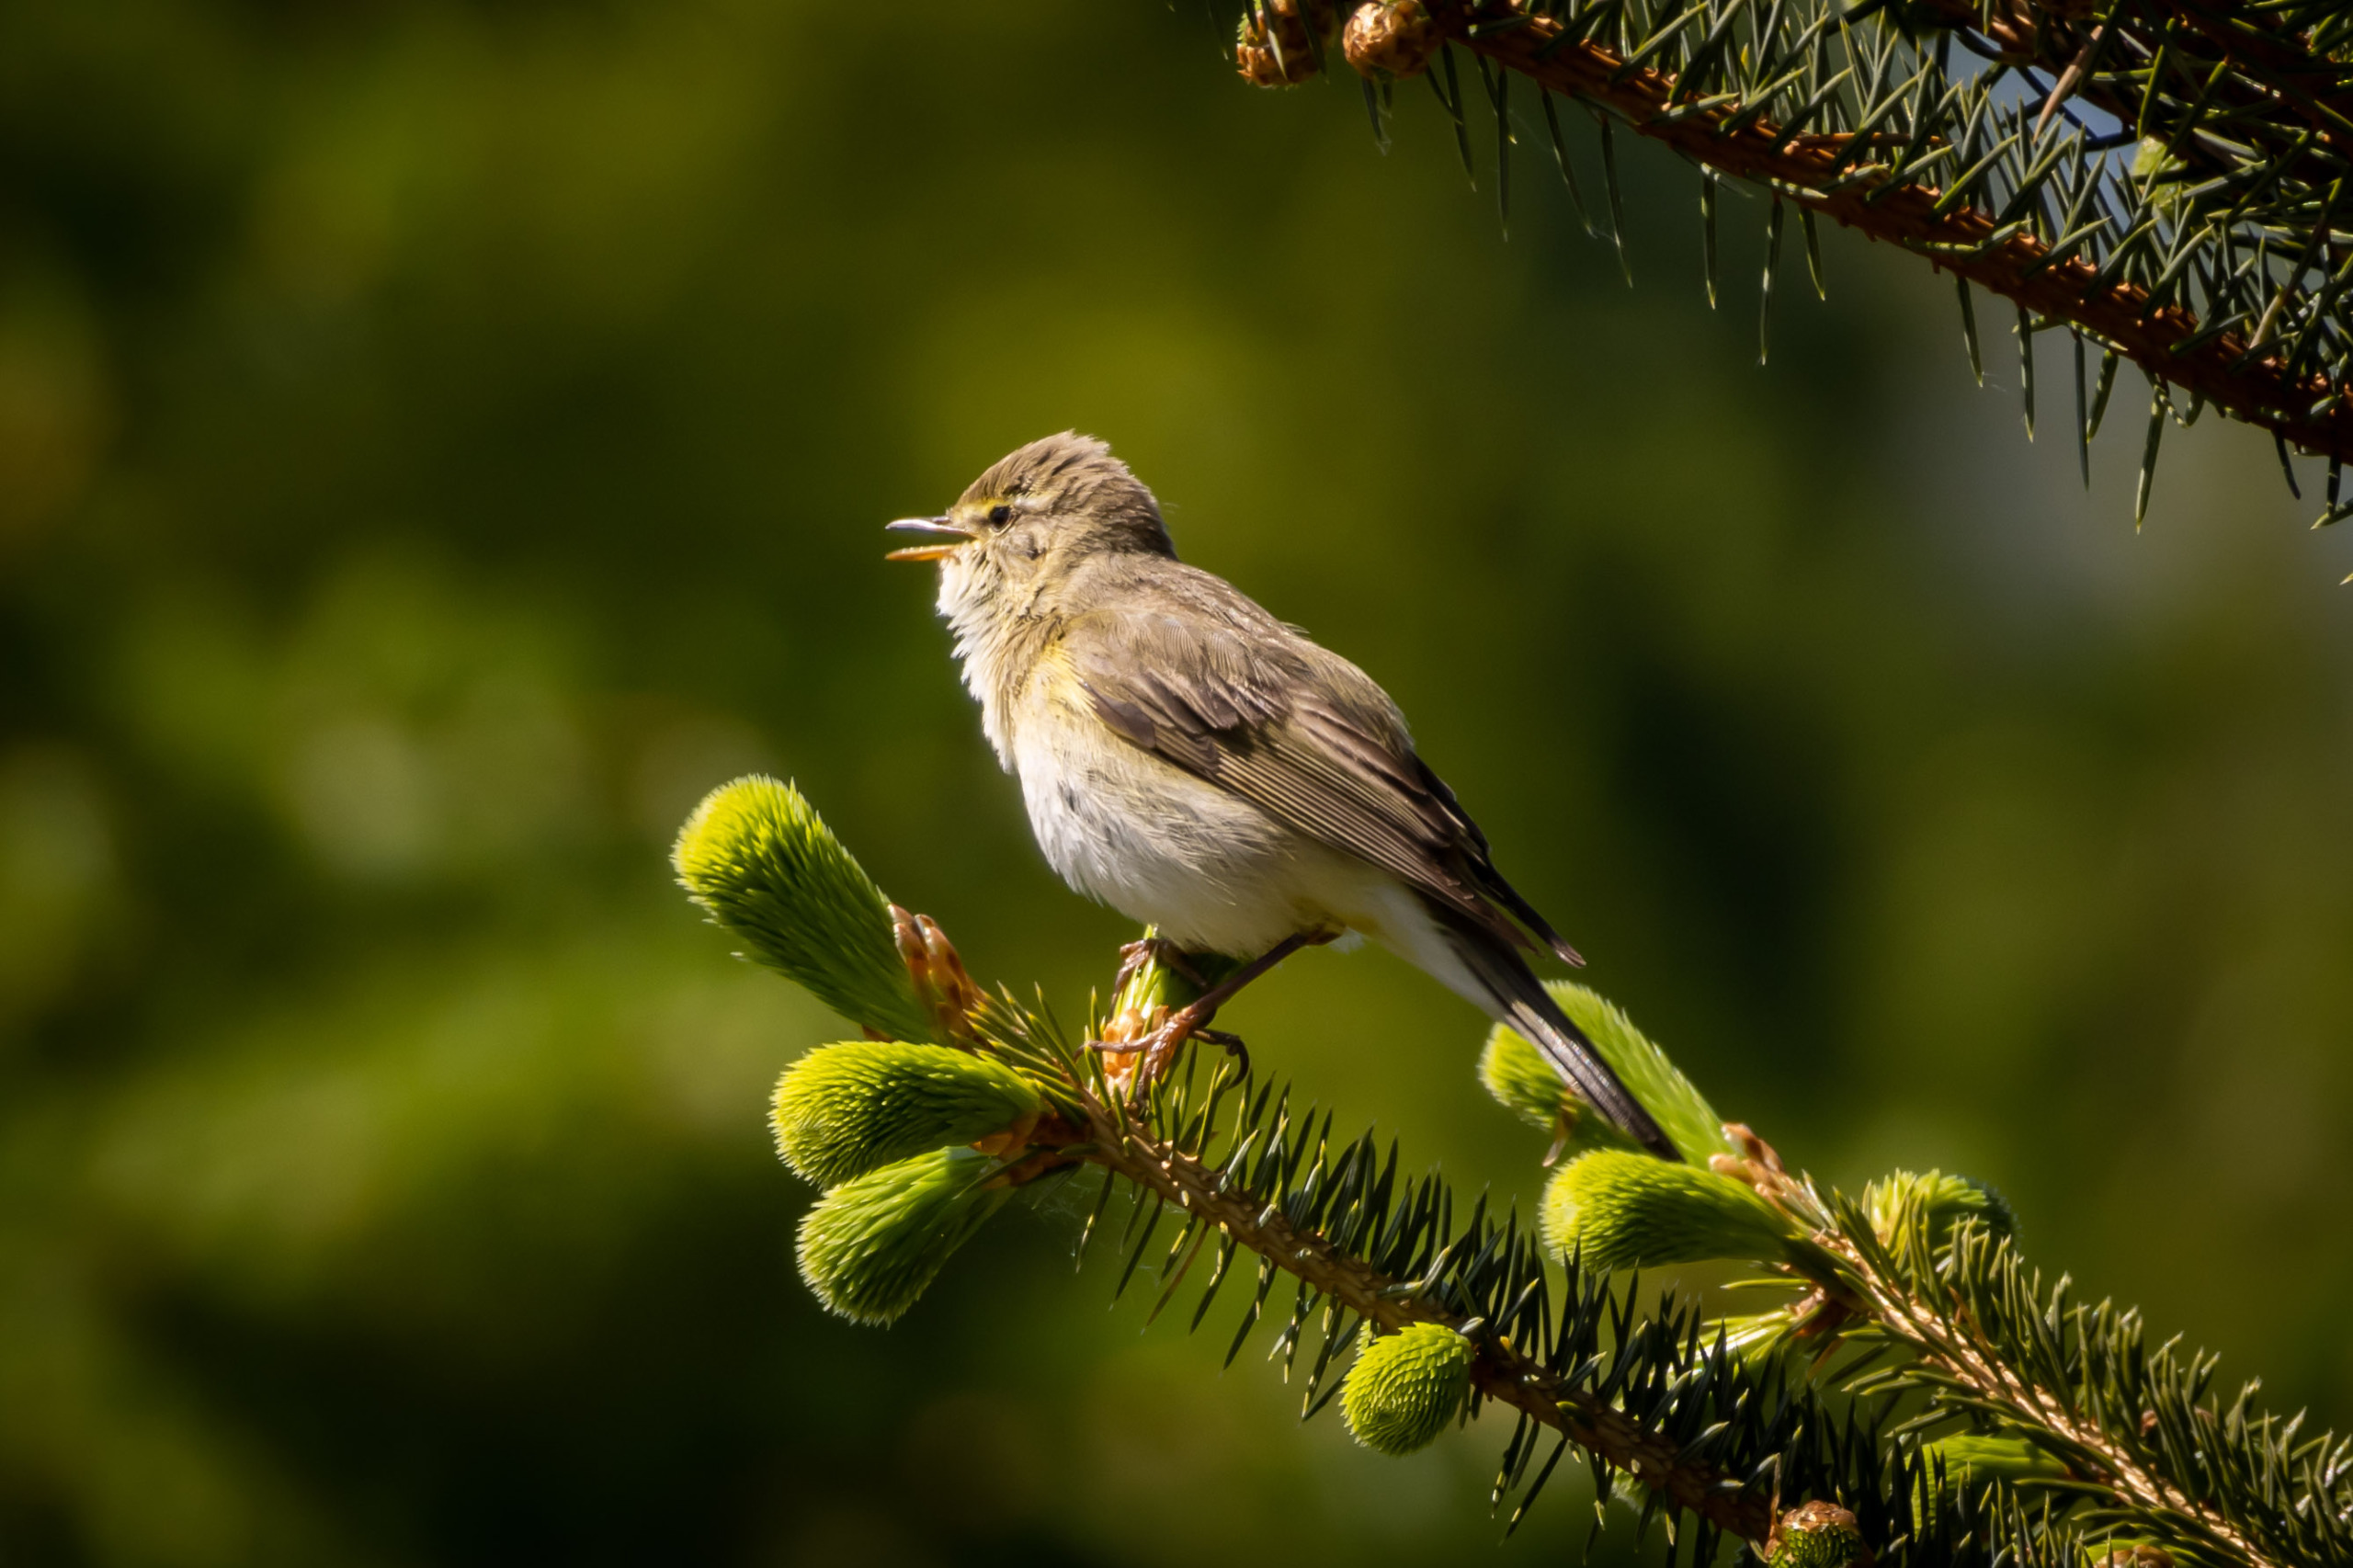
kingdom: Animalia
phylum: Chordata
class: Aves
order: Passeriformes
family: Phylloscopidae
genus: Phylloscopus
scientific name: Phylloscopus trochilus
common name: Løvsanger
